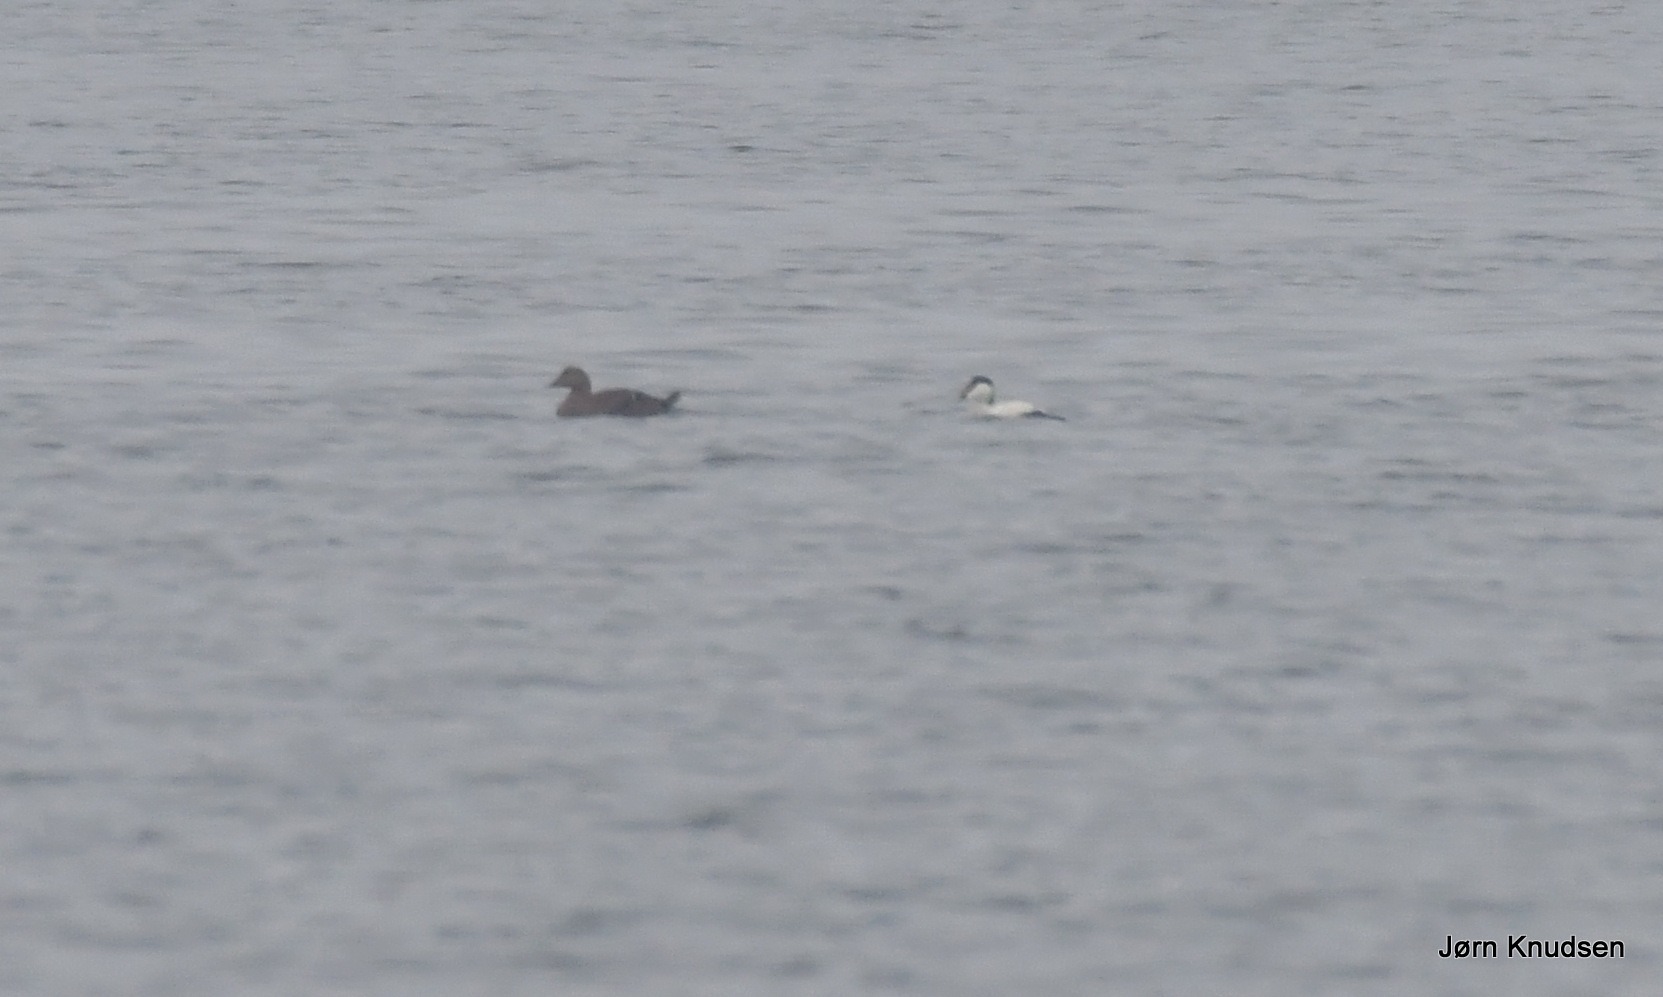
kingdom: Animalia
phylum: Chordata
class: Aves
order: Anseriformes
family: Anatidae
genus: Somateria
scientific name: Somateria mollissima
